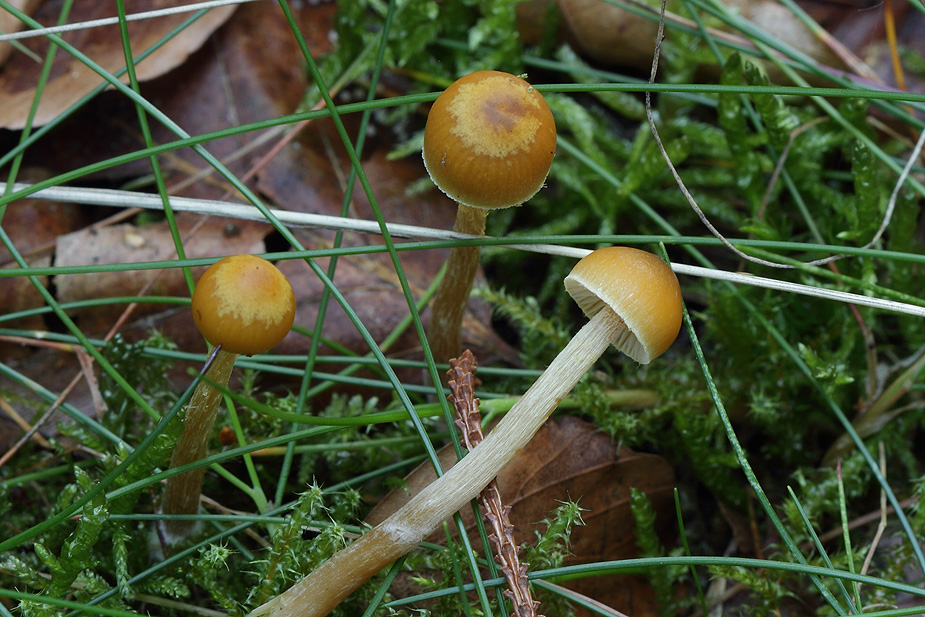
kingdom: Fungi
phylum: Basidiomycota
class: Agaricomycetes
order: Agaricales
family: Hymenogastraceae
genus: Galerina
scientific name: Galerina pumila
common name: honninggul hjelmhat
